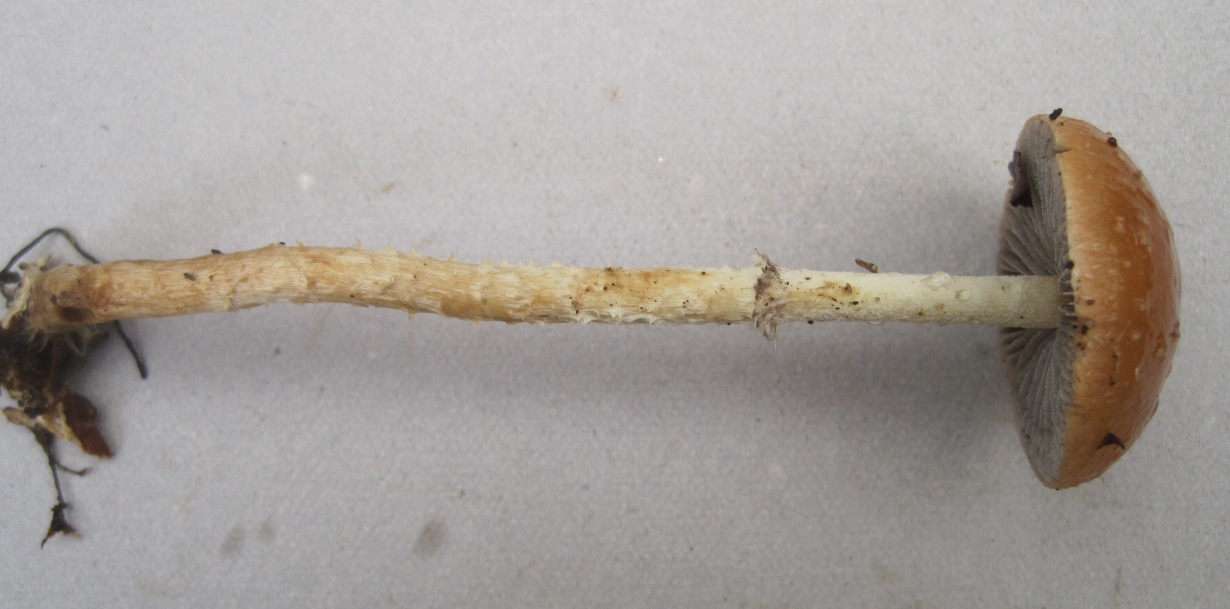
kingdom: Fungi
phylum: Basidiomycota
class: Agaricomycetes
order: Agaricales
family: Strophariaceae
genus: Leratiomyces
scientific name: Leratiomyces squamosus
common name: skællet bredblad
